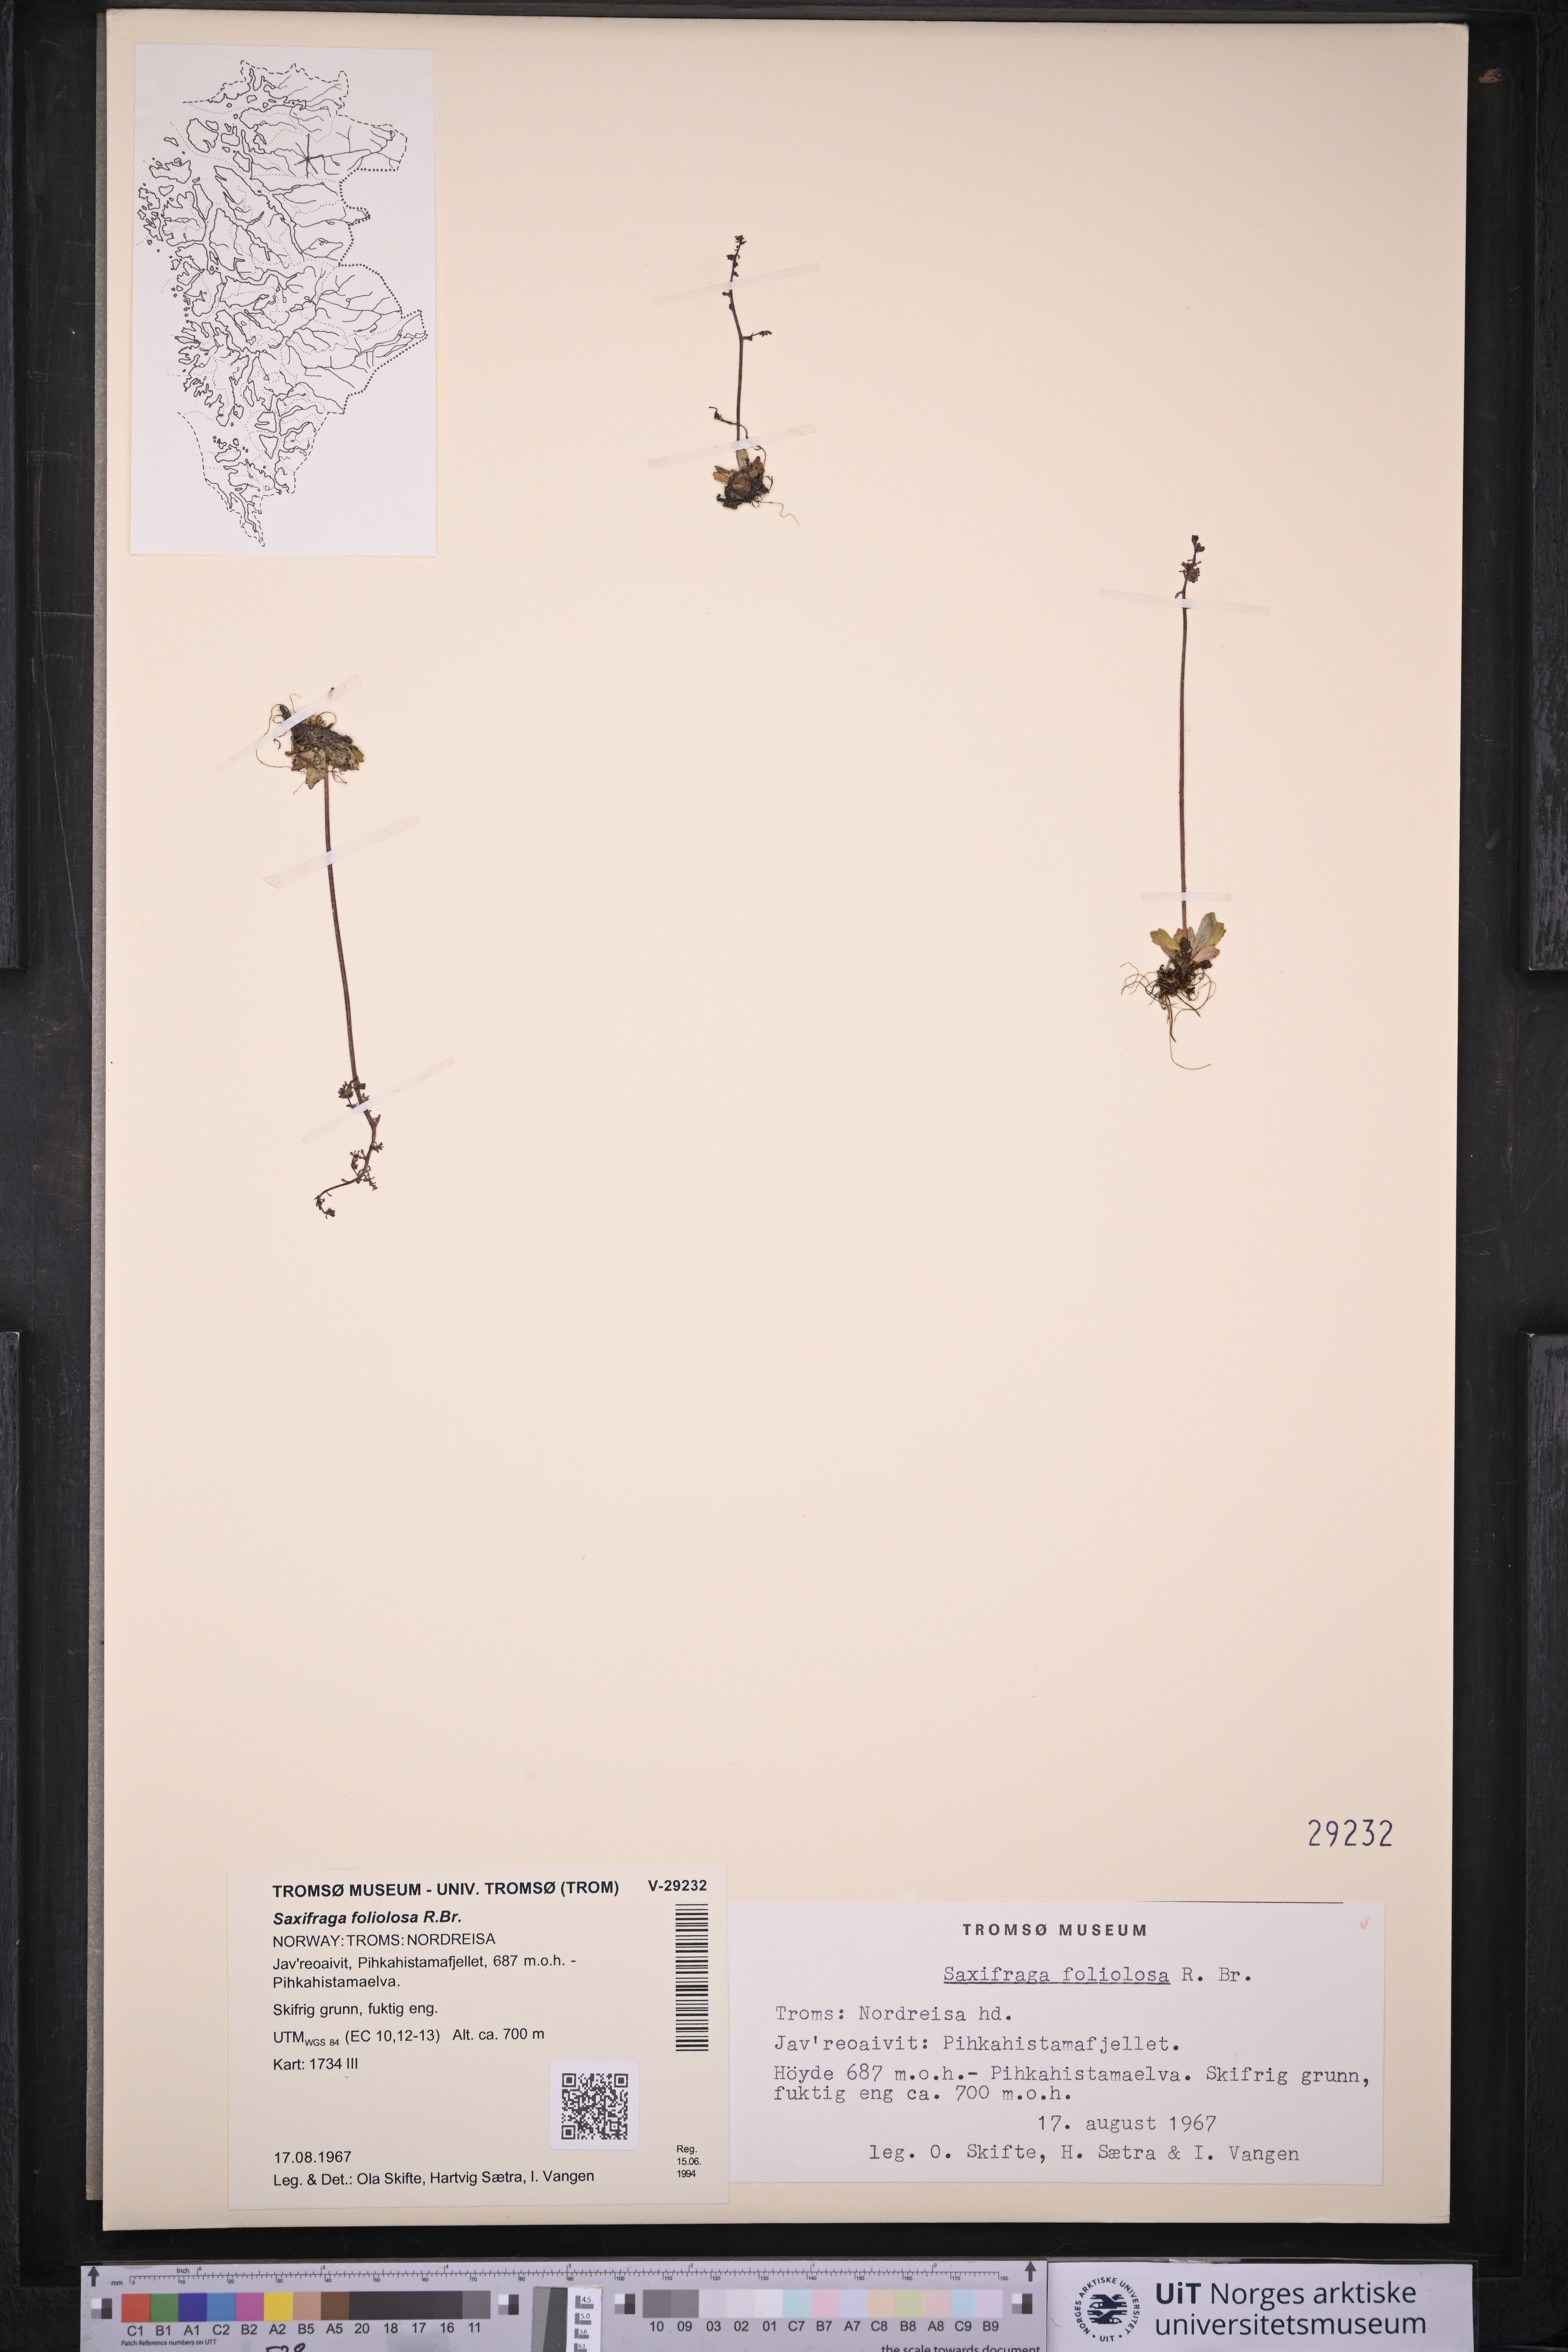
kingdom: Plantae
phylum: Tracheophyta
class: Magnoliopsida
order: Saxifragales
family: Saxifragaceae
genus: Micranthes
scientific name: Micranthes foliolosa
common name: Leafystem saxifrage
